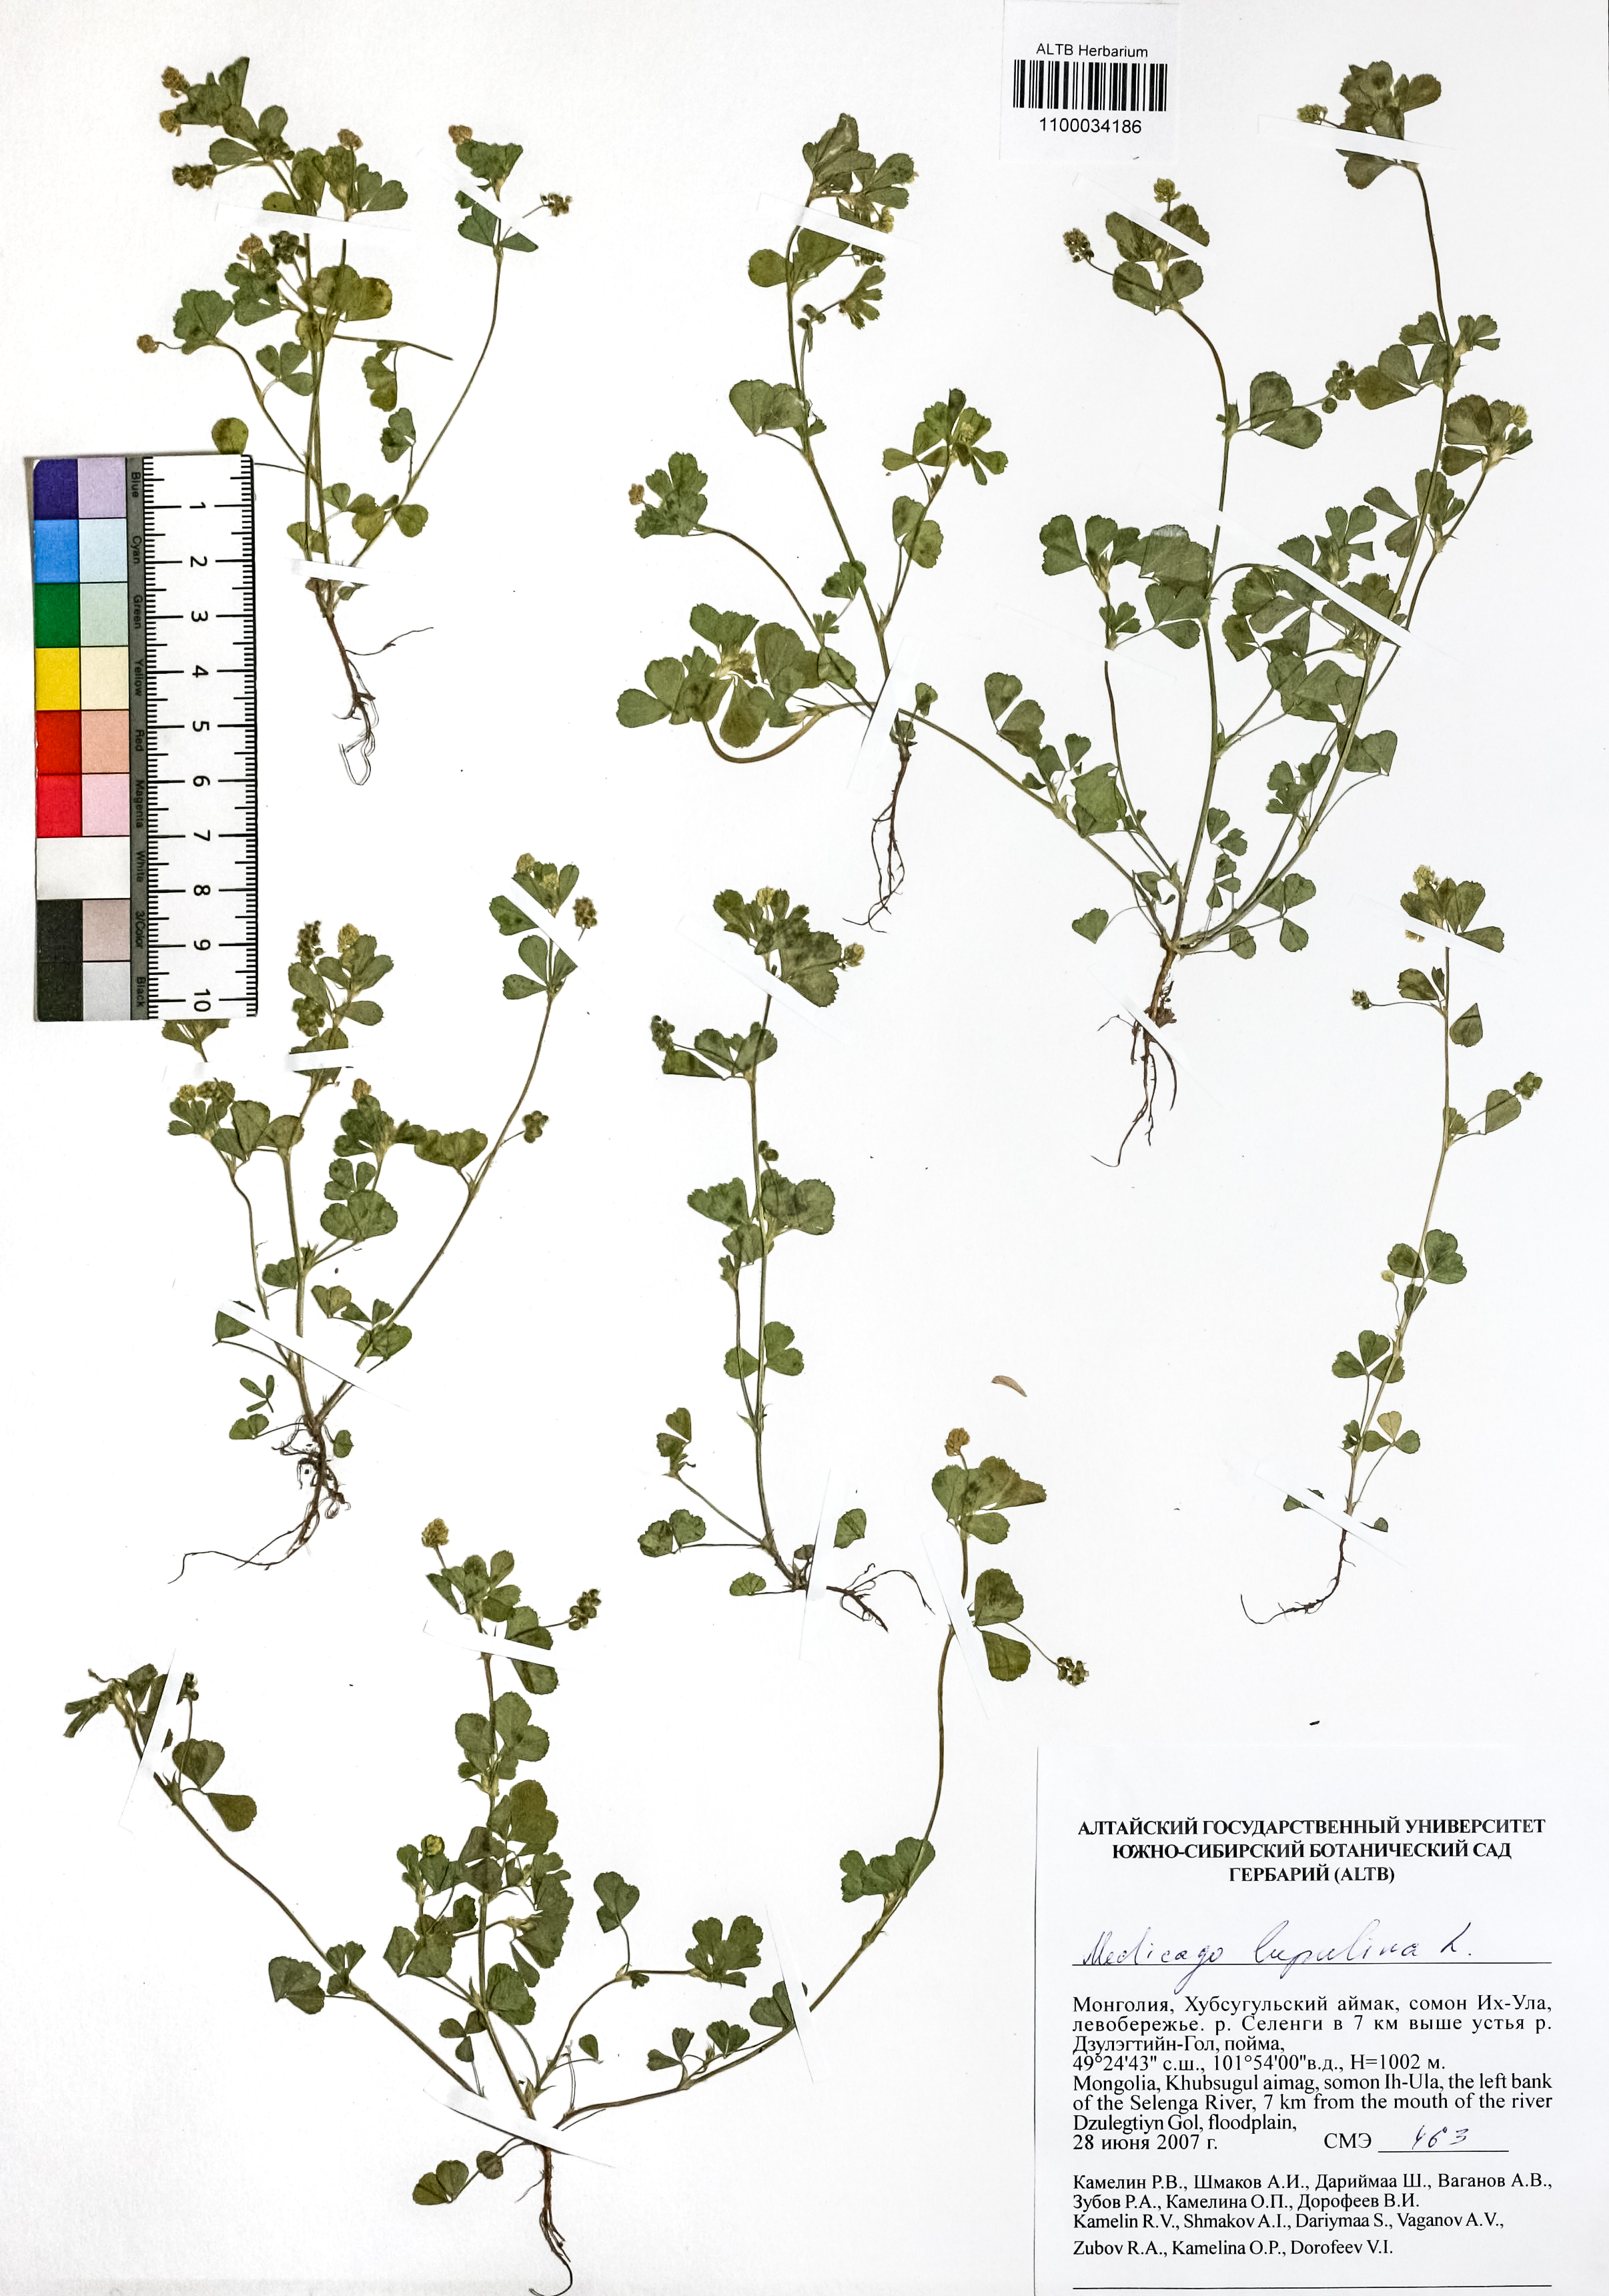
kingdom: Plantae
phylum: Tracheophyta
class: Magnoliopsida
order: Fabales
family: Fabaceae
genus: Medicago
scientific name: Medicago lupulina
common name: Black medick
